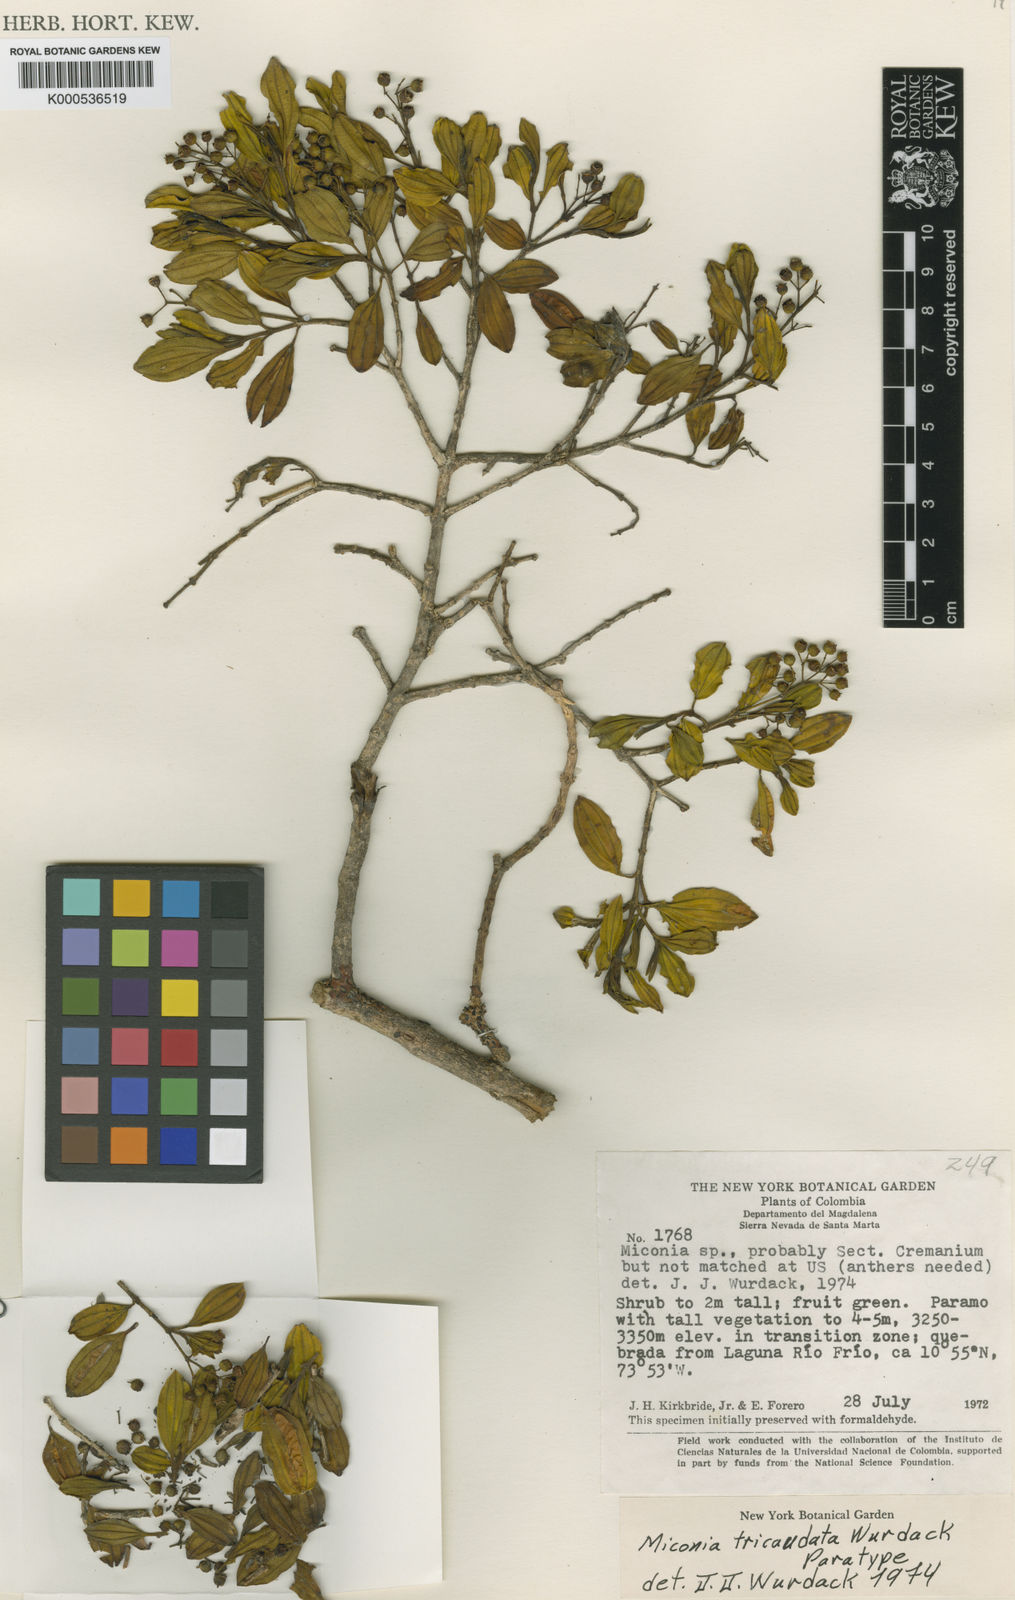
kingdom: Plantae
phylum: Tracheophyta
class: Magnoliopsida
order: Myrtales
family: Melastomataceae
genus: Miconia
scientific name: Miconia tricaudata
